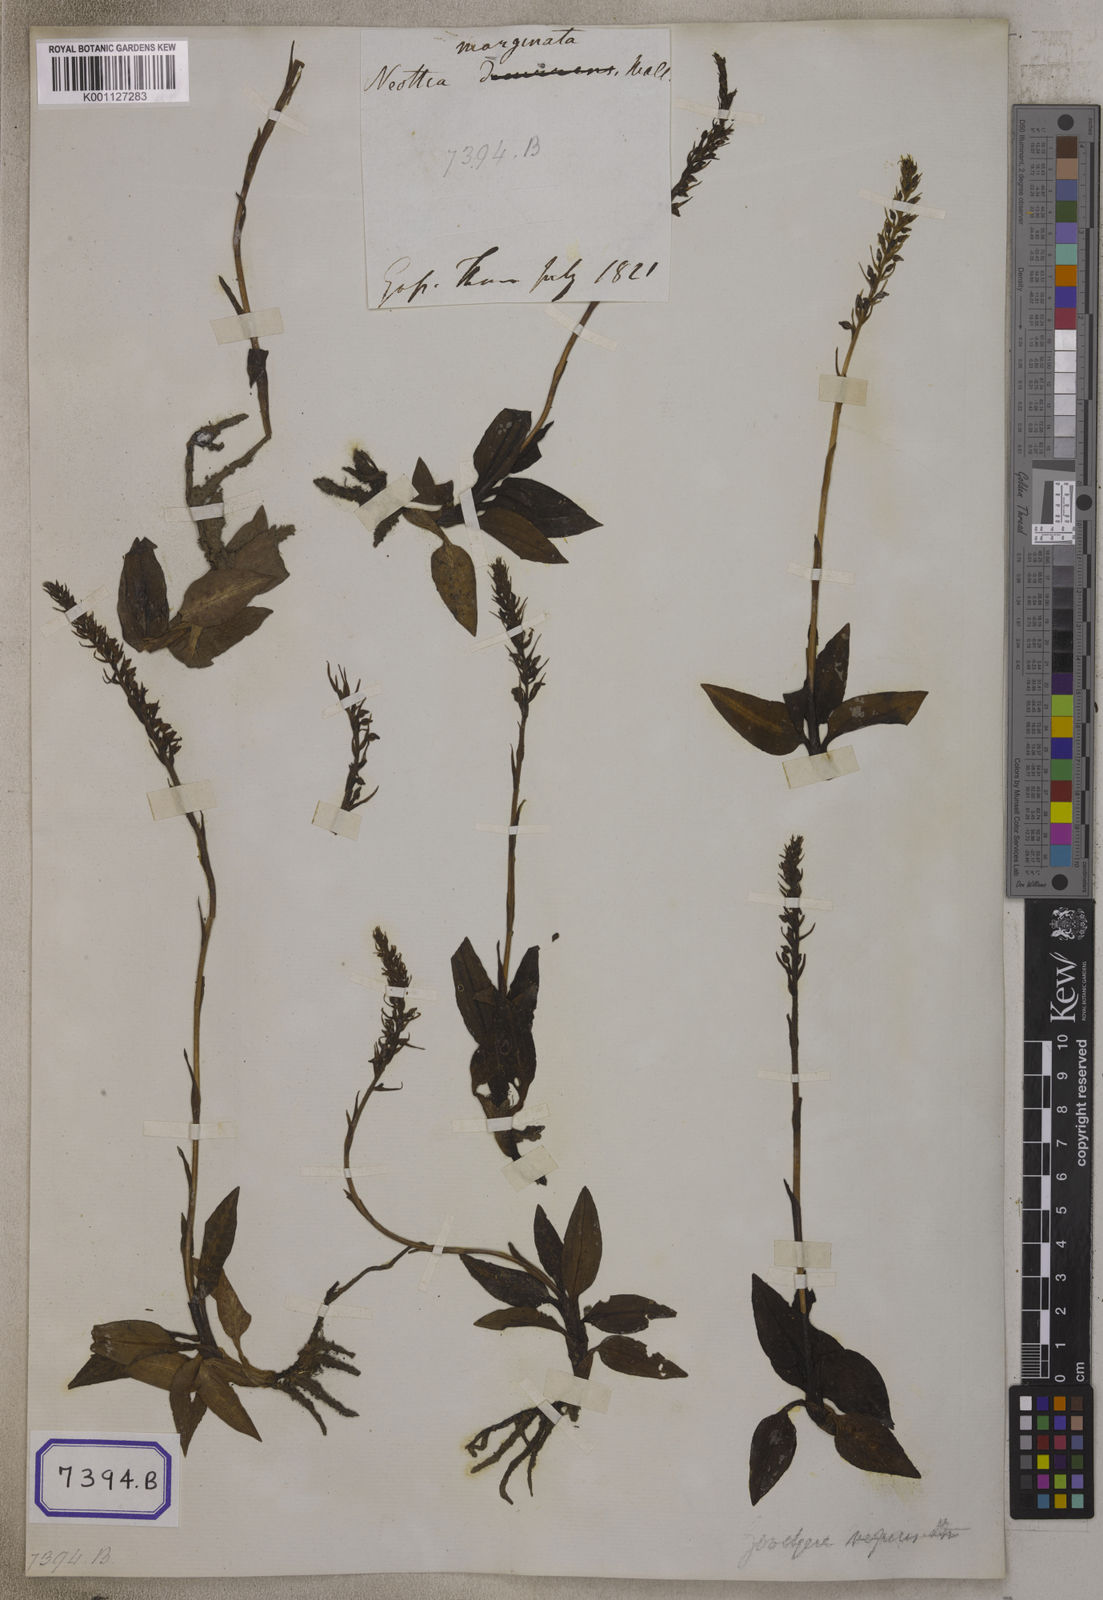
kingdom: Plantae
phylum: Tracheophyta
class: Liliopsida
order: Asparagales
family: Orchidaceae
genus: Goodyera
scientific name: Goodyera marginata
